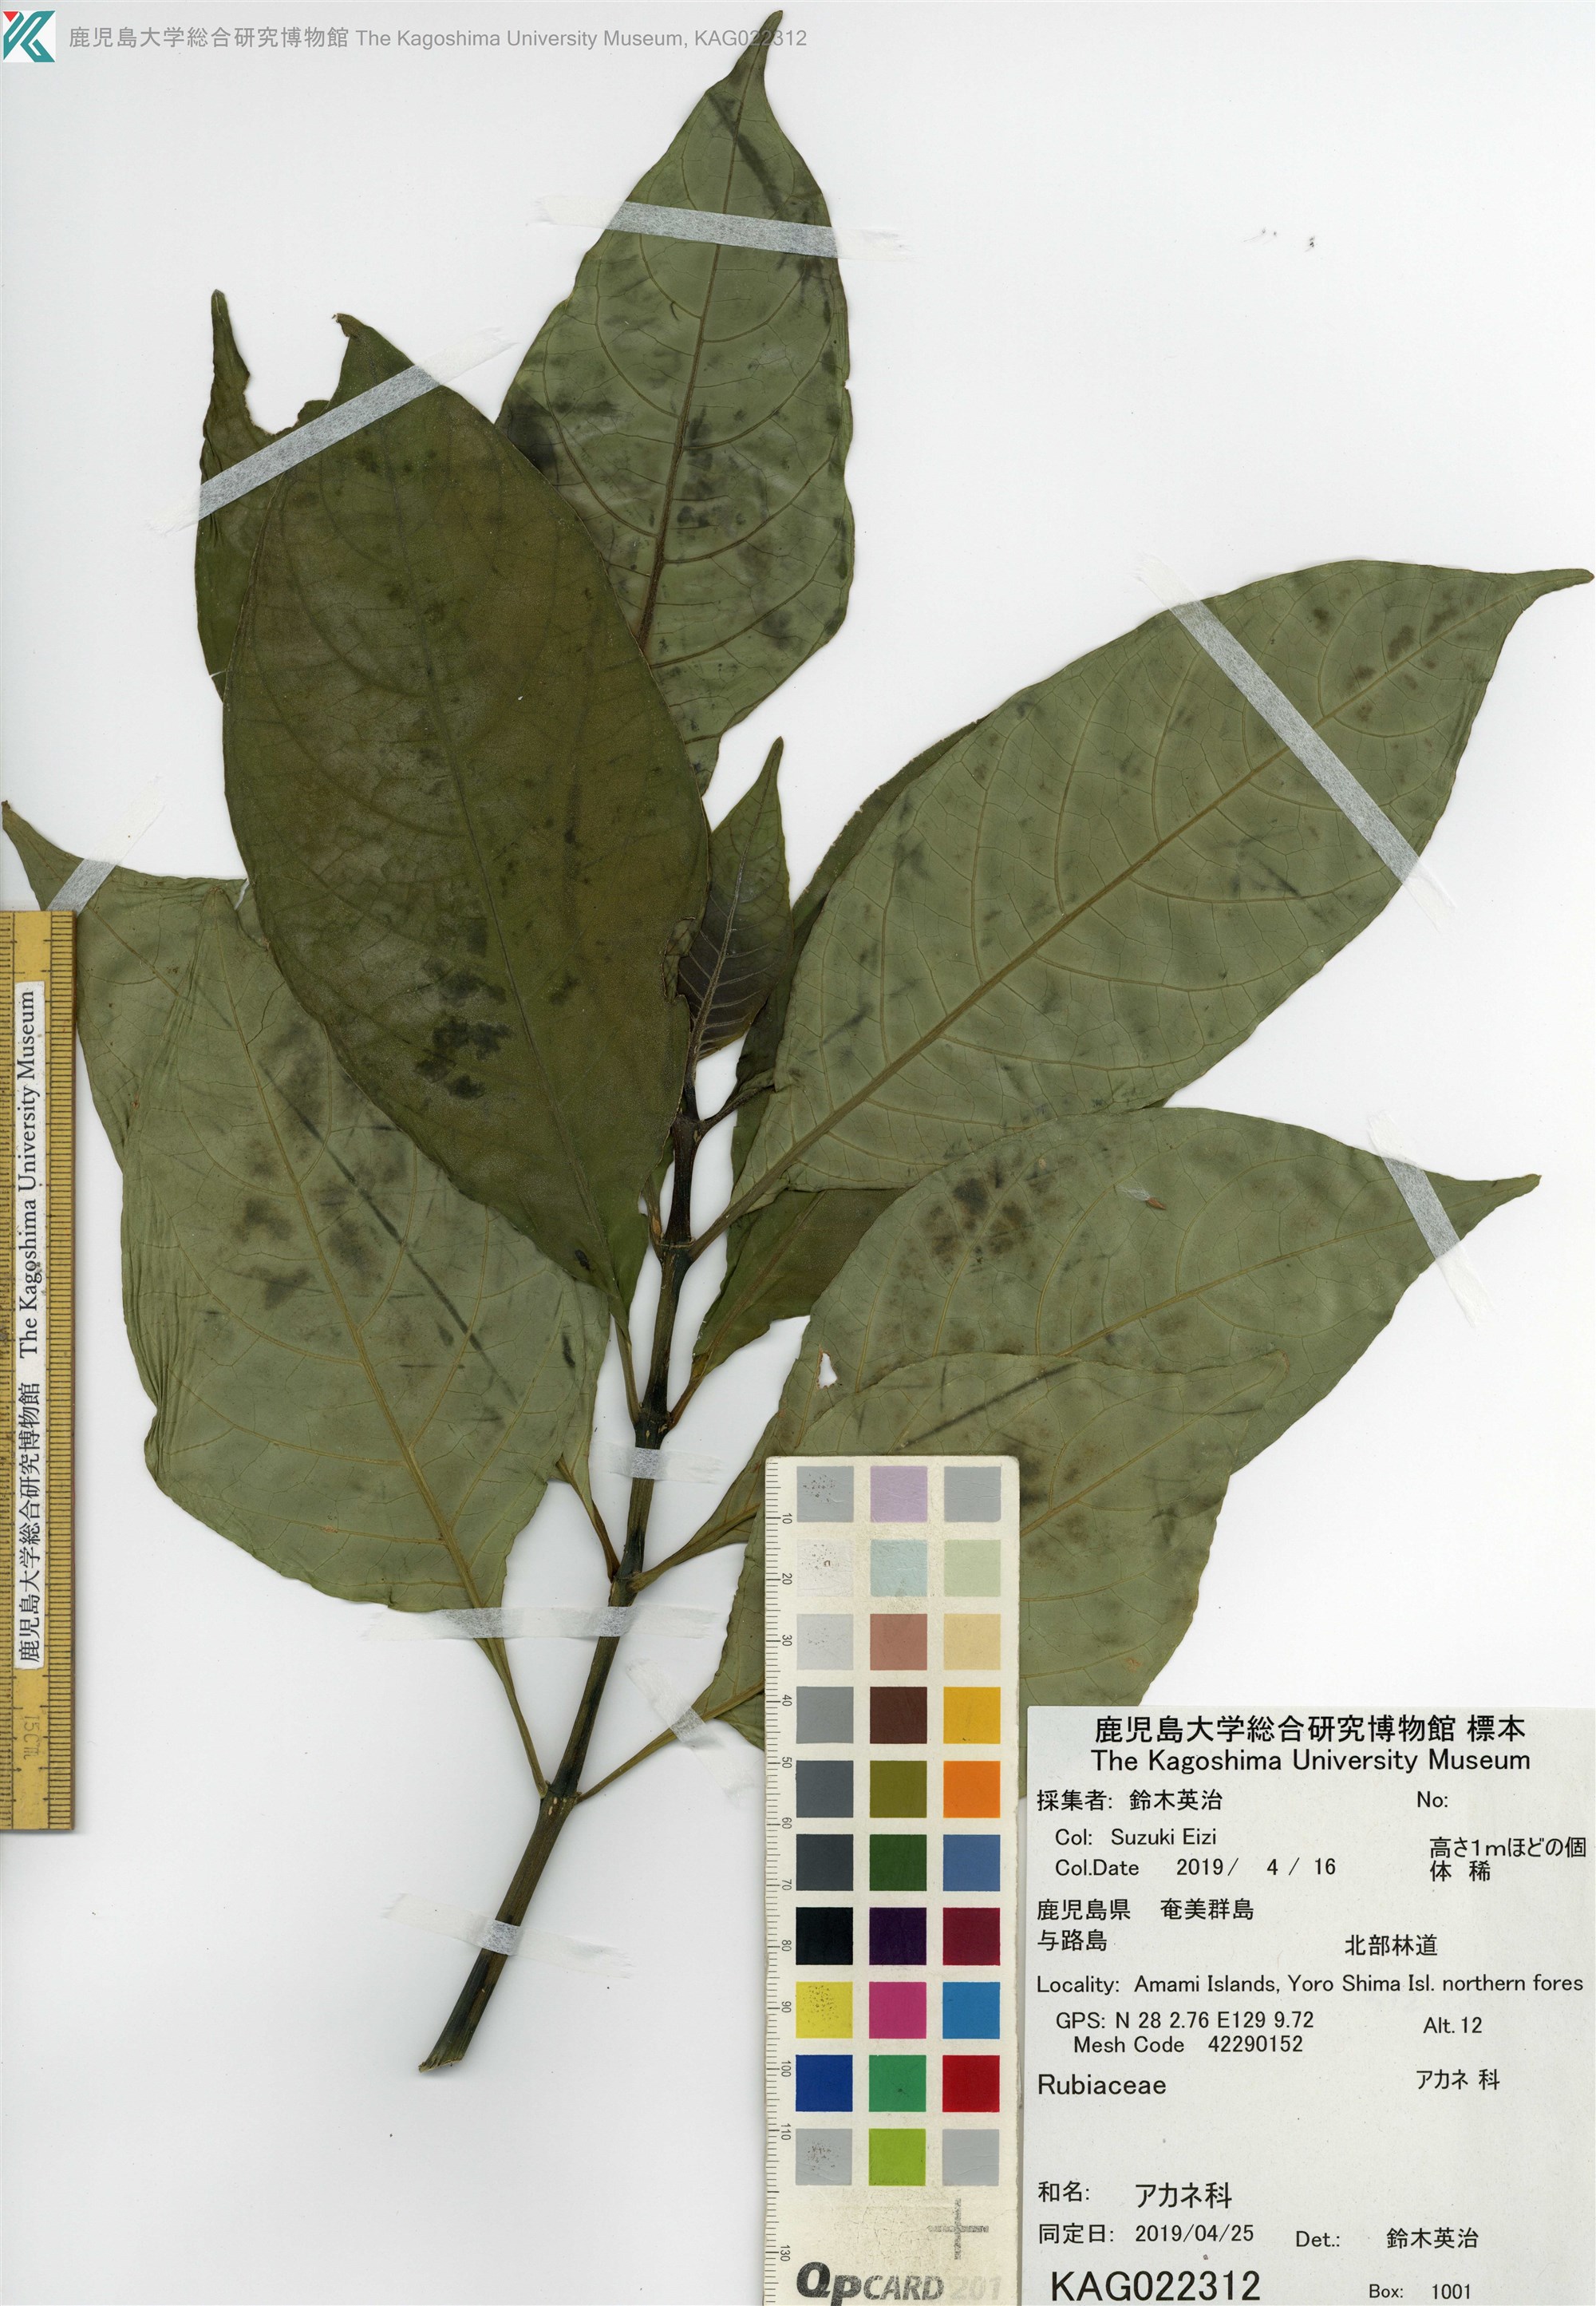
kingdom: Plantae
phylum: Tracheophyta
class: Magnoliopsida
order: Lamiales
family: Acanthaceae
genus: Odontonema
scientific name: Odontonema tubaeforme
